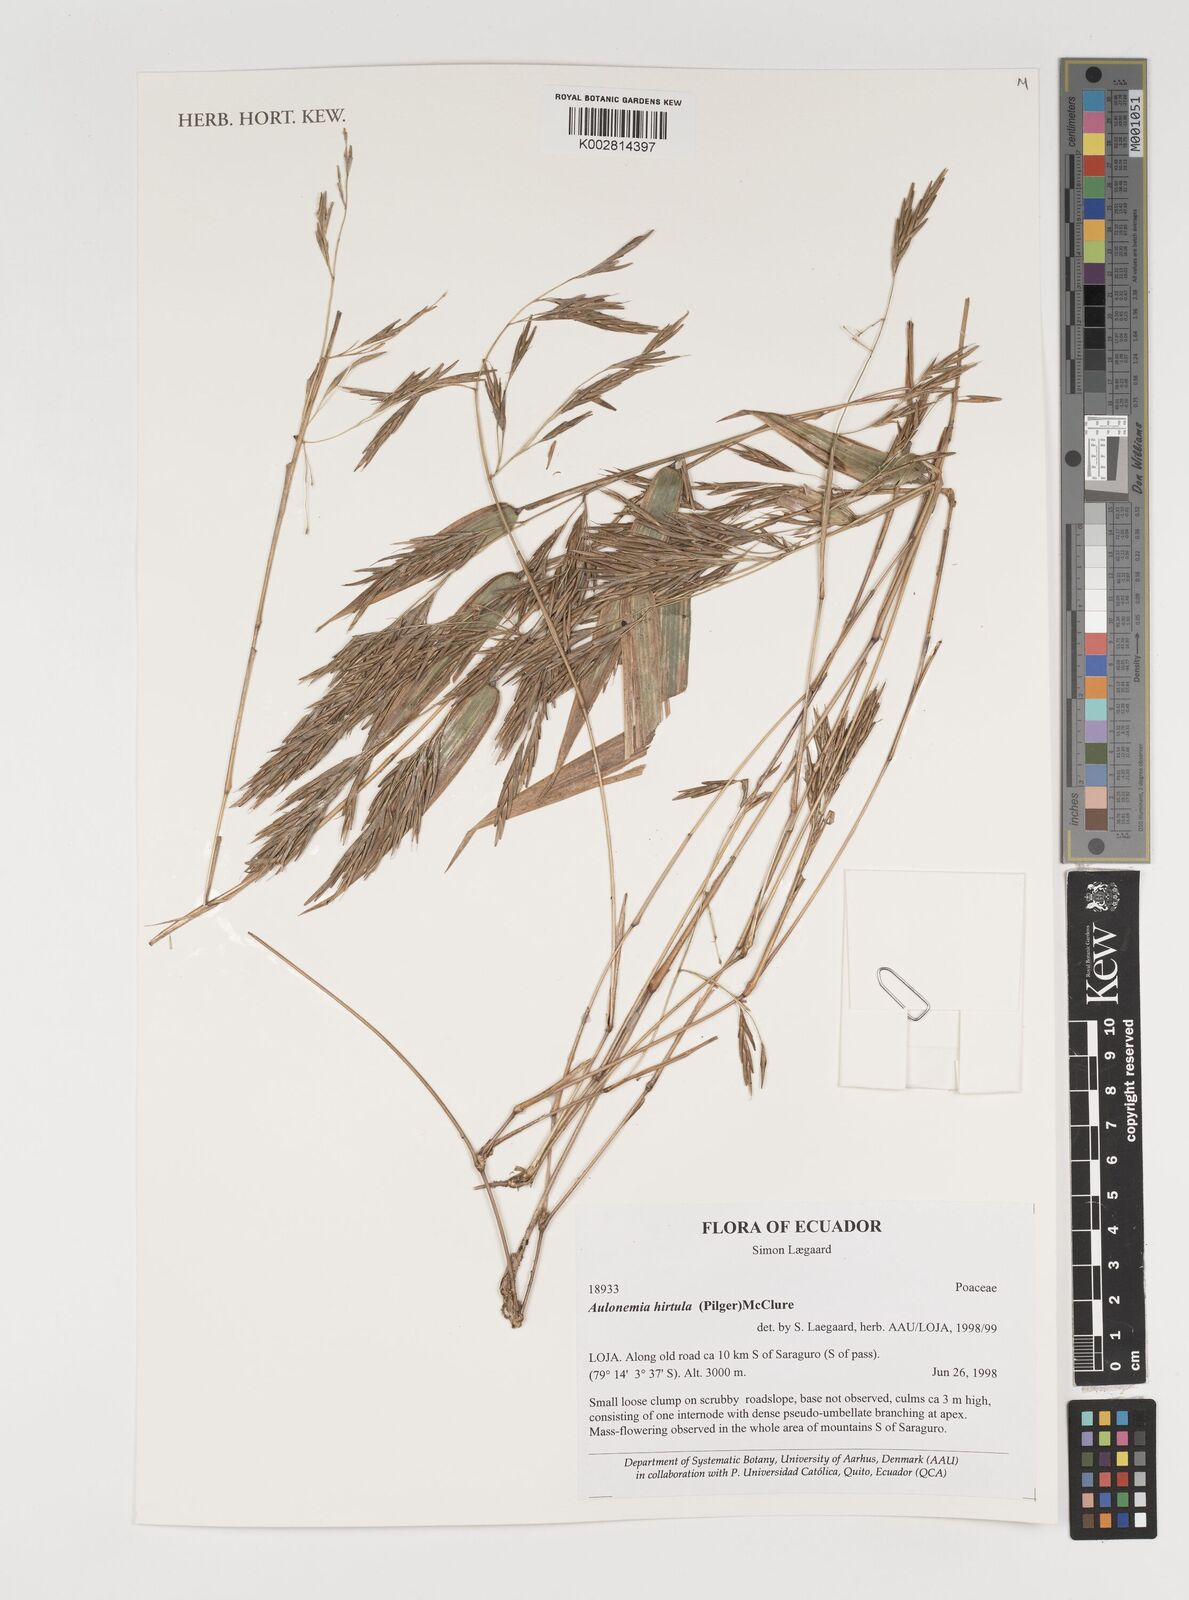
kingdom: Plantae
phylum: Tracheophyta
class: Liliopsida
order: Poales
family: Poaceae
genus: Aulonemia
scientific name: Aulonemia hirtula
